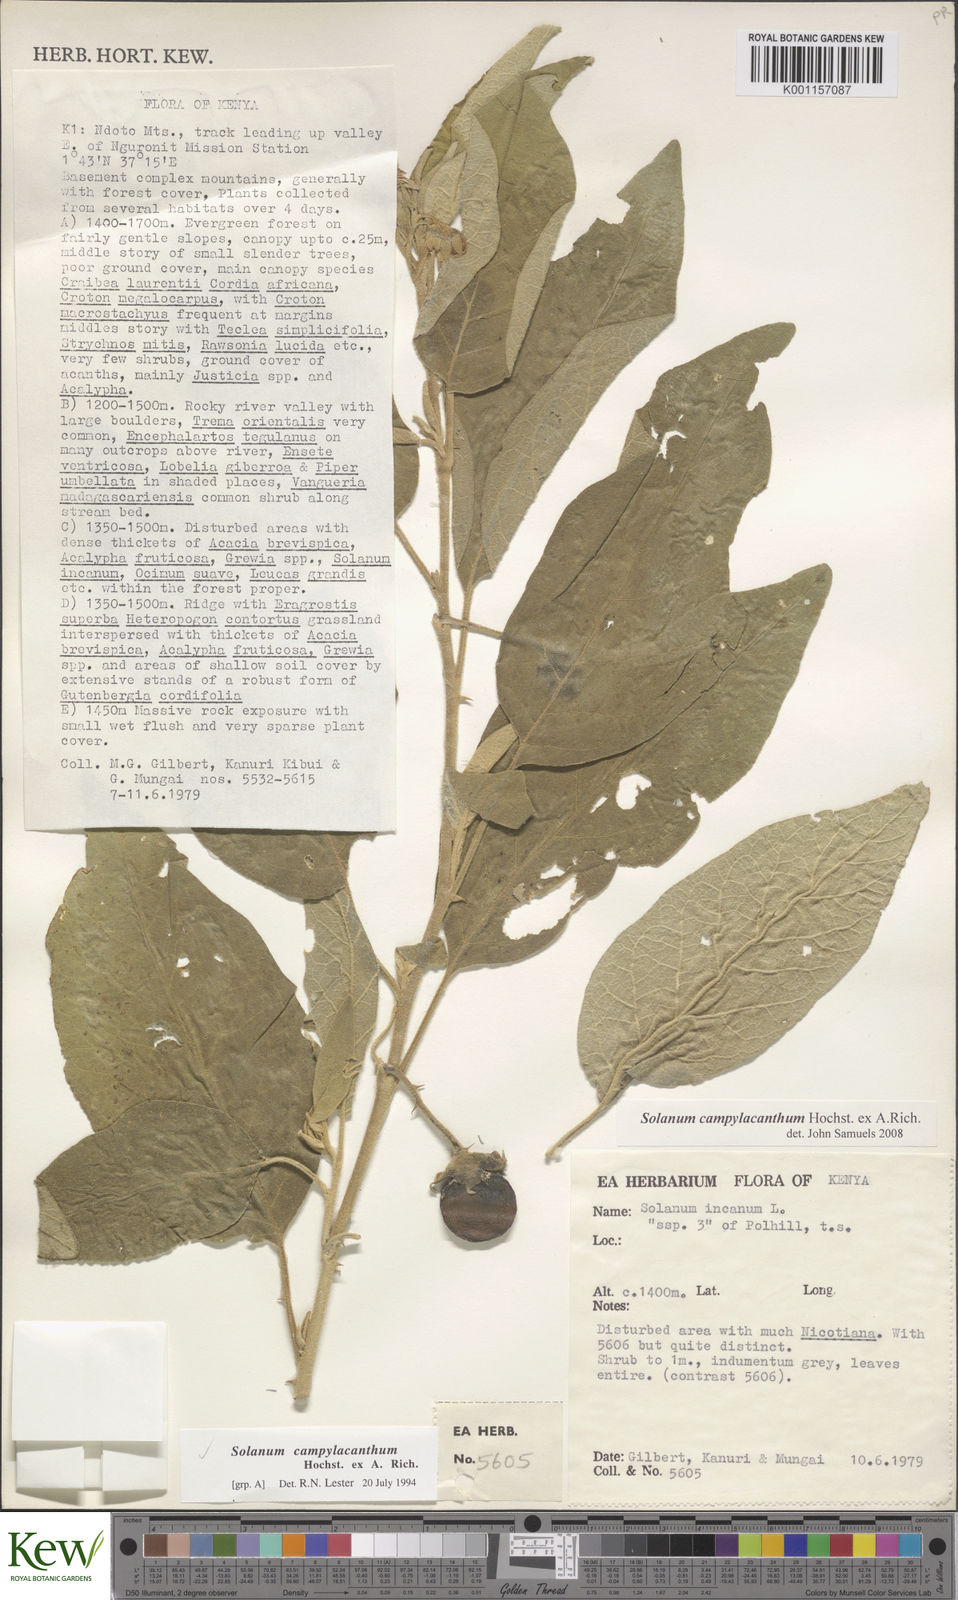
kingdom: Plantae
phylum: Tracheophyta
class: Magnoliopsida
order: Solanales
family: Solanaceae
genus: Solanum
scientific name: Solanum campylacanthum
